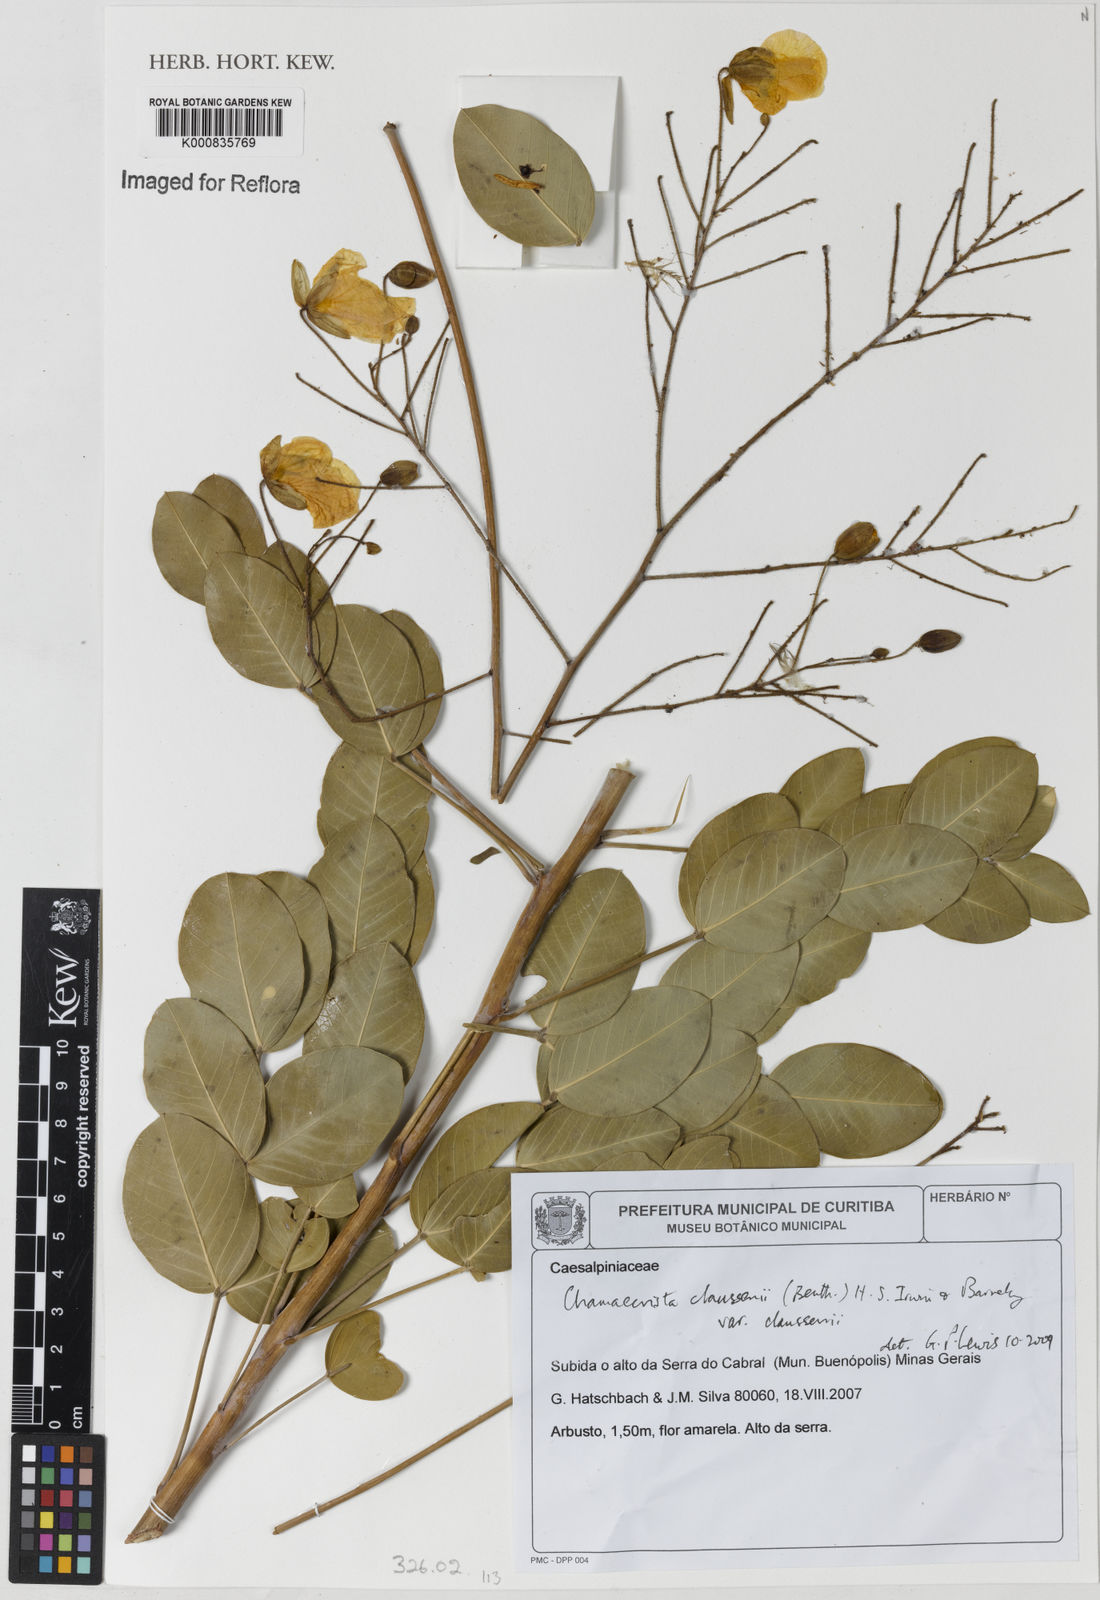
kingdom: Plantae
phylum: Tracheophyta
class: Magnoliopsida
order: Fabales
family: Fabaceae
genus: Chamaecrista
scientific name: Chamaecrista claussenii
